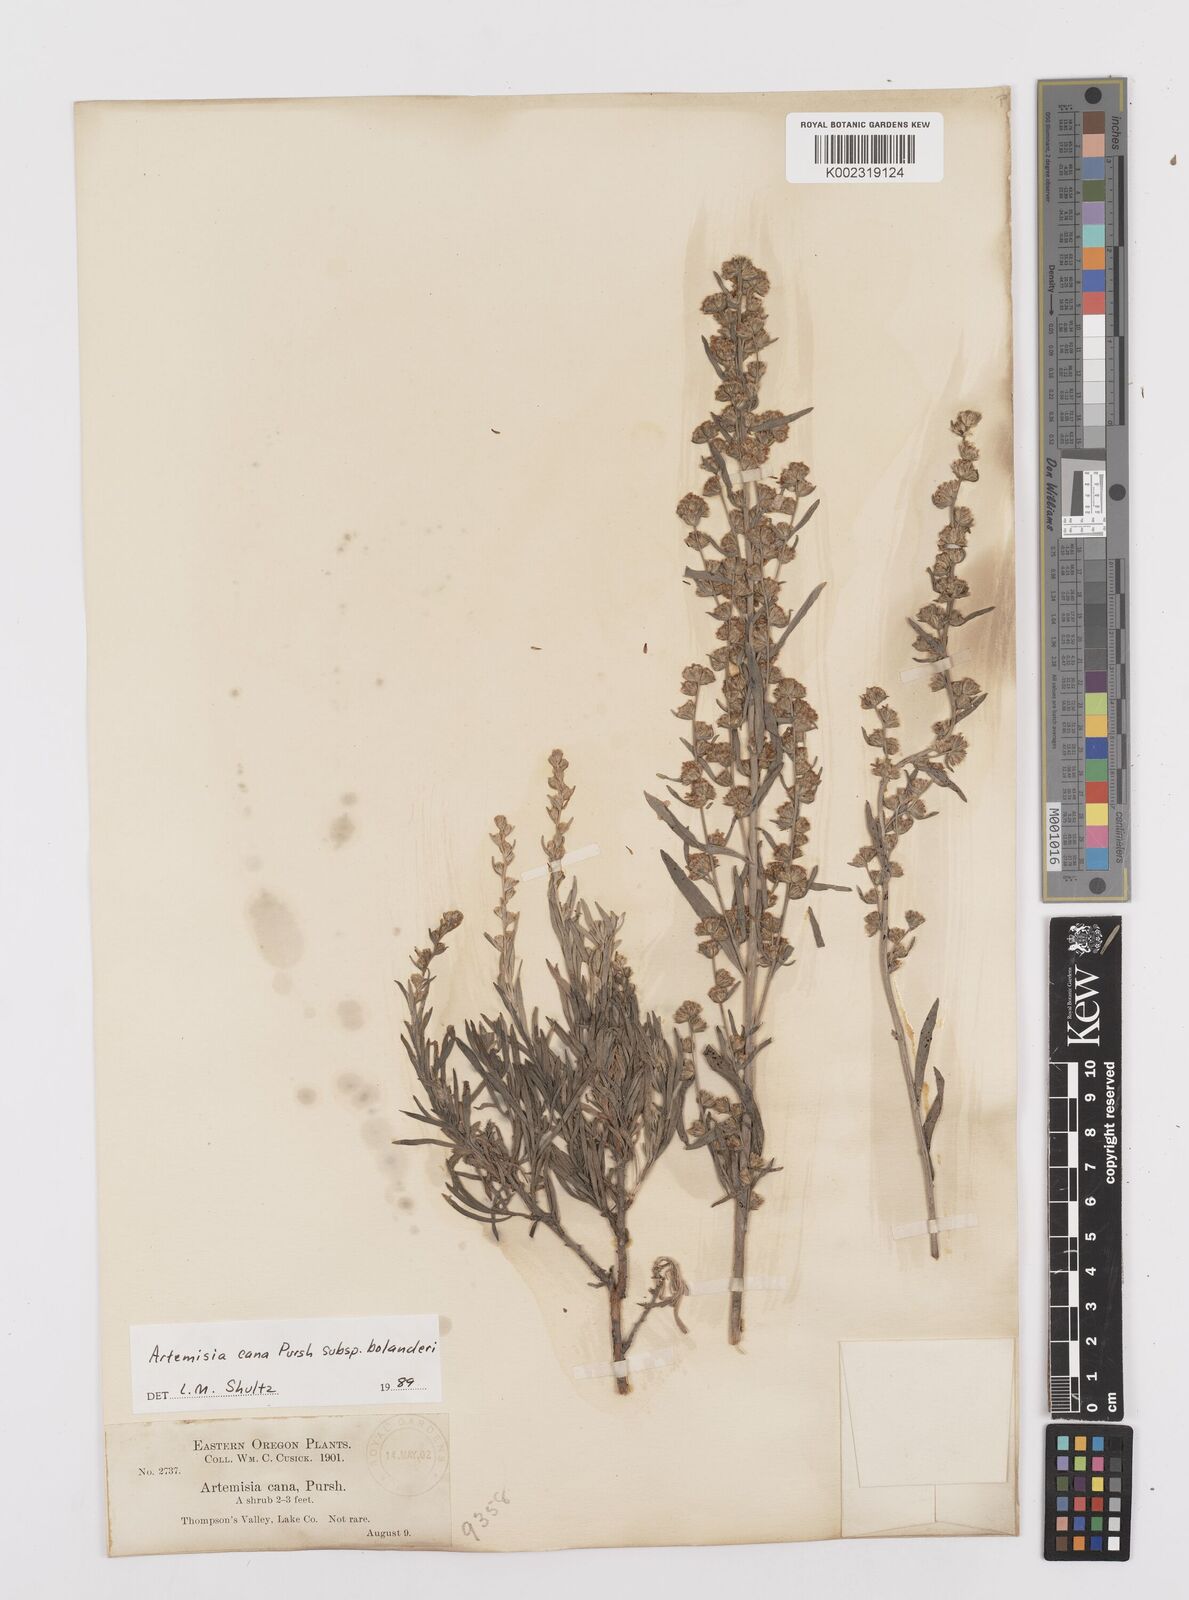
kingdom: Plantae
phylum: Tracheophyta
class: Magnoliopsida
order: Asterales
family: Asteraceae
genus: Artemisia
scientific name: Artemisia cana
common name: Silver sagebrush
